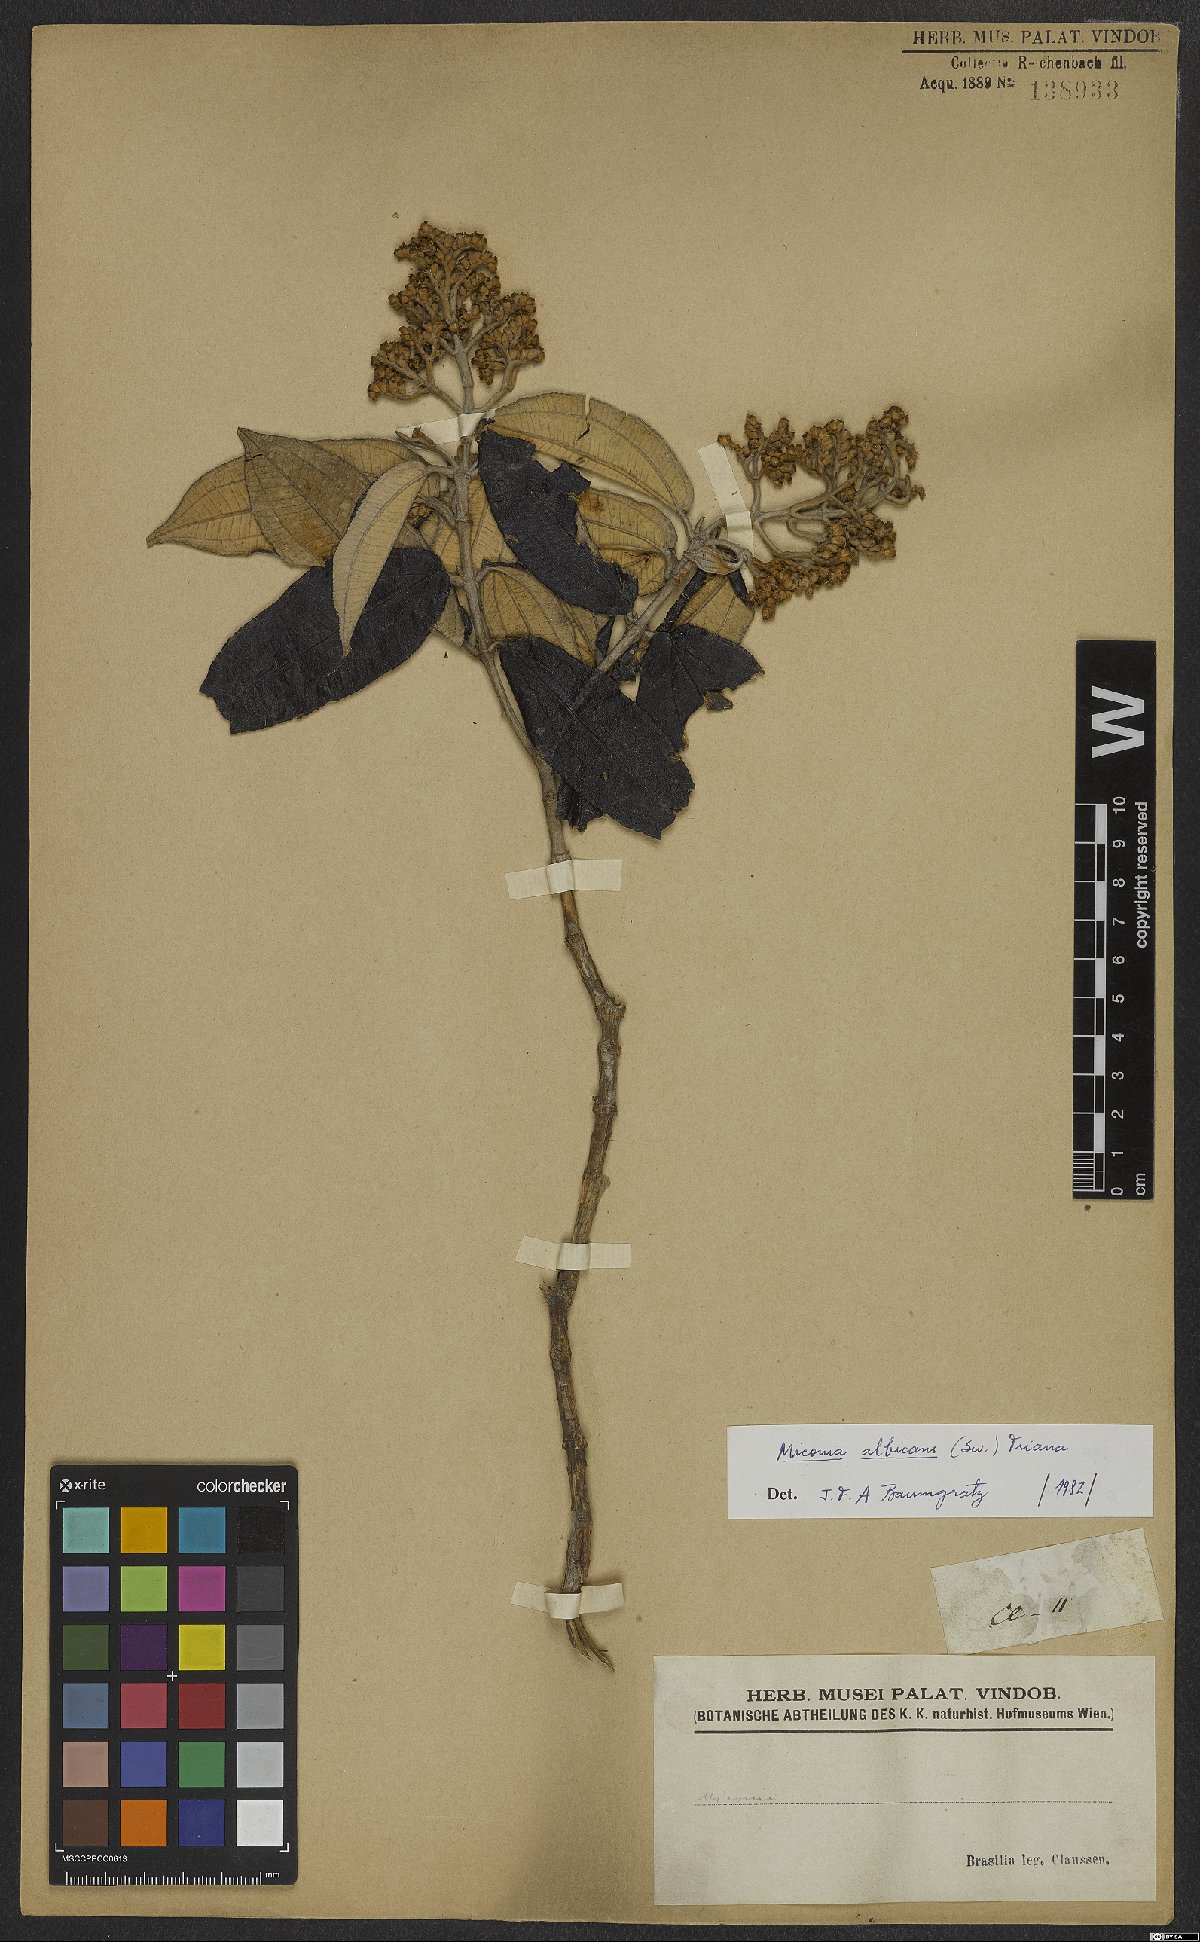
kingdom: Plantae
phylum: Tracheophyta
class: Magnoliopsida
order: Myrtales
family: Melastomataceae
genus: Miconia
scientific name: Miconia albicans
